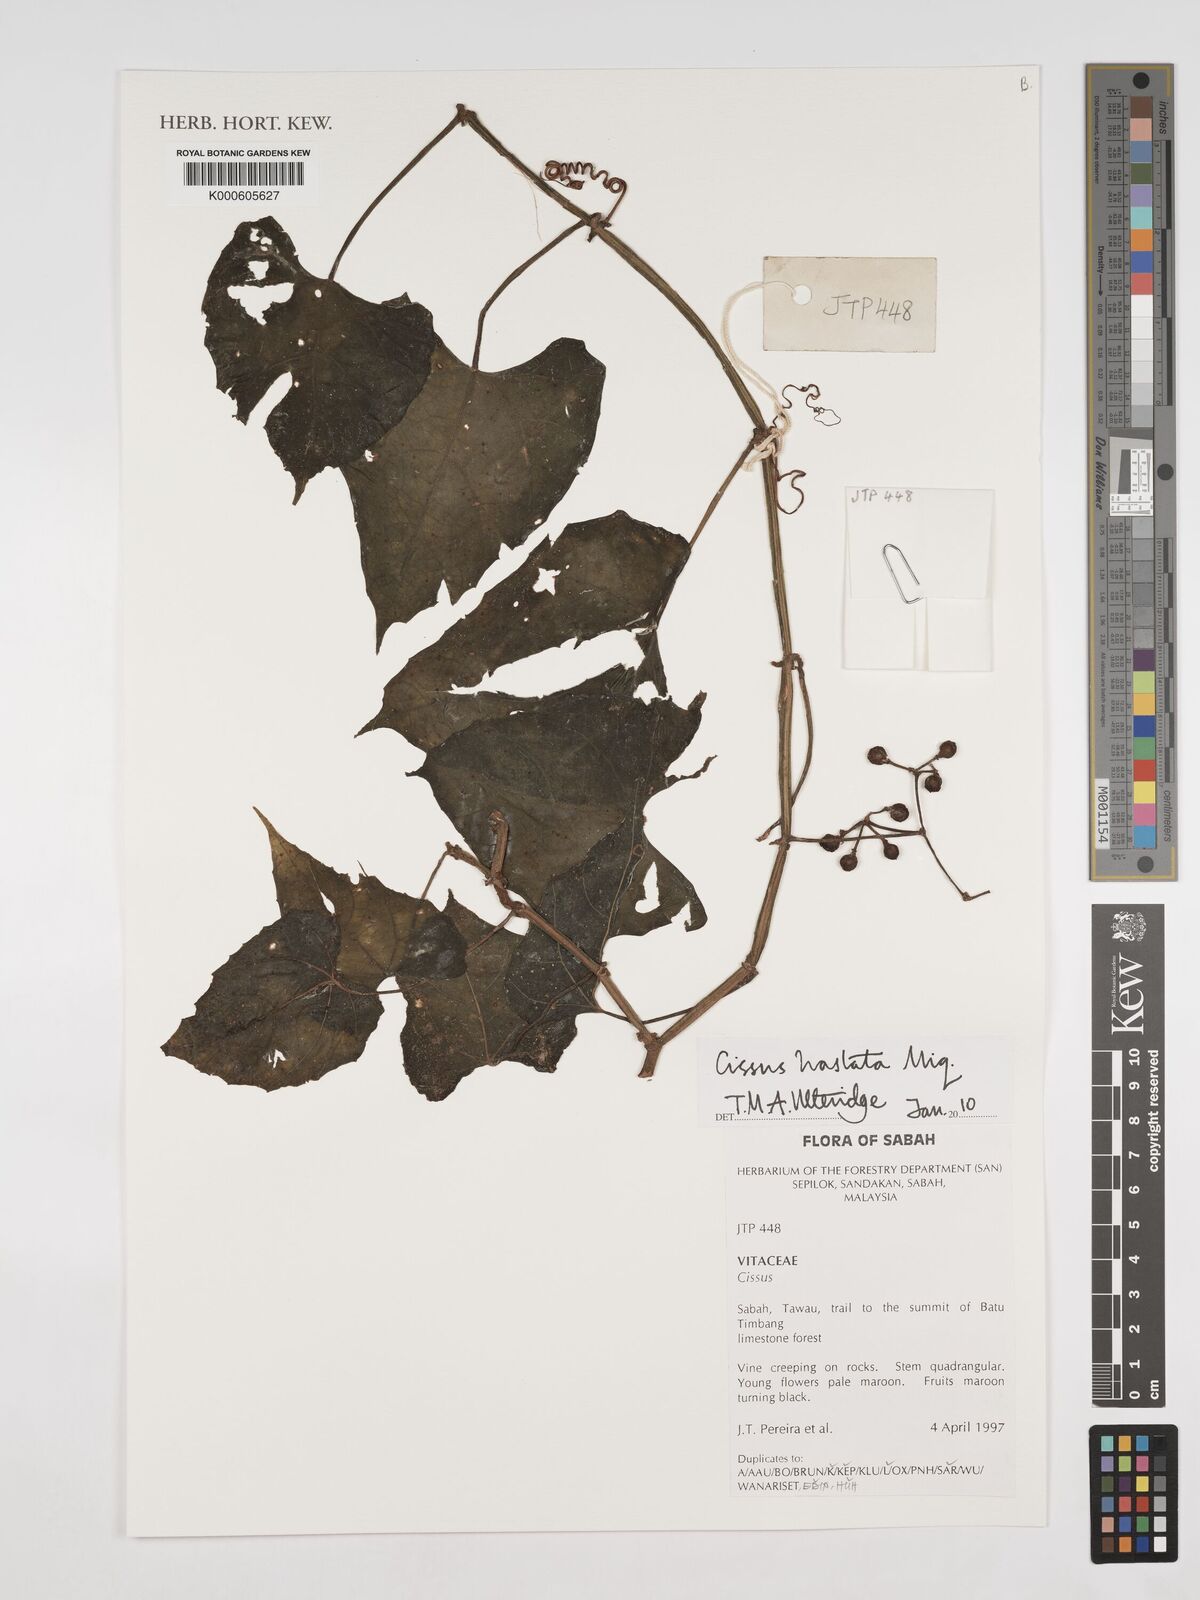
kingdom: Plantae
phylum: Tracheophyta
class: Magnoliopsida
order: Vitales
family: Vitaceae
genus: Cissus
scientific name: Cissus hastata
